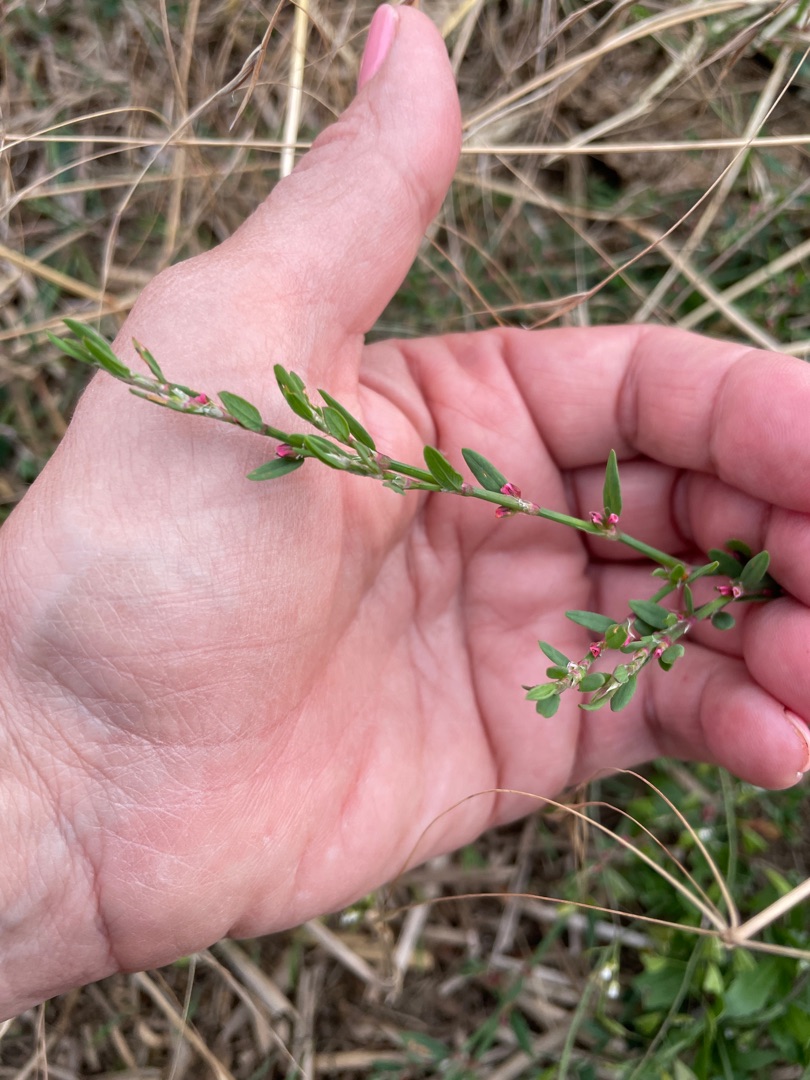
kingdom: Plantae
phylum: Tracheophyta
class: Magnoliopsida
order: Caryophyllales
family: Polygonaceae
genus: Polygonum
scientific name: Polygonum aviculare
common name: Vej-pileurt
